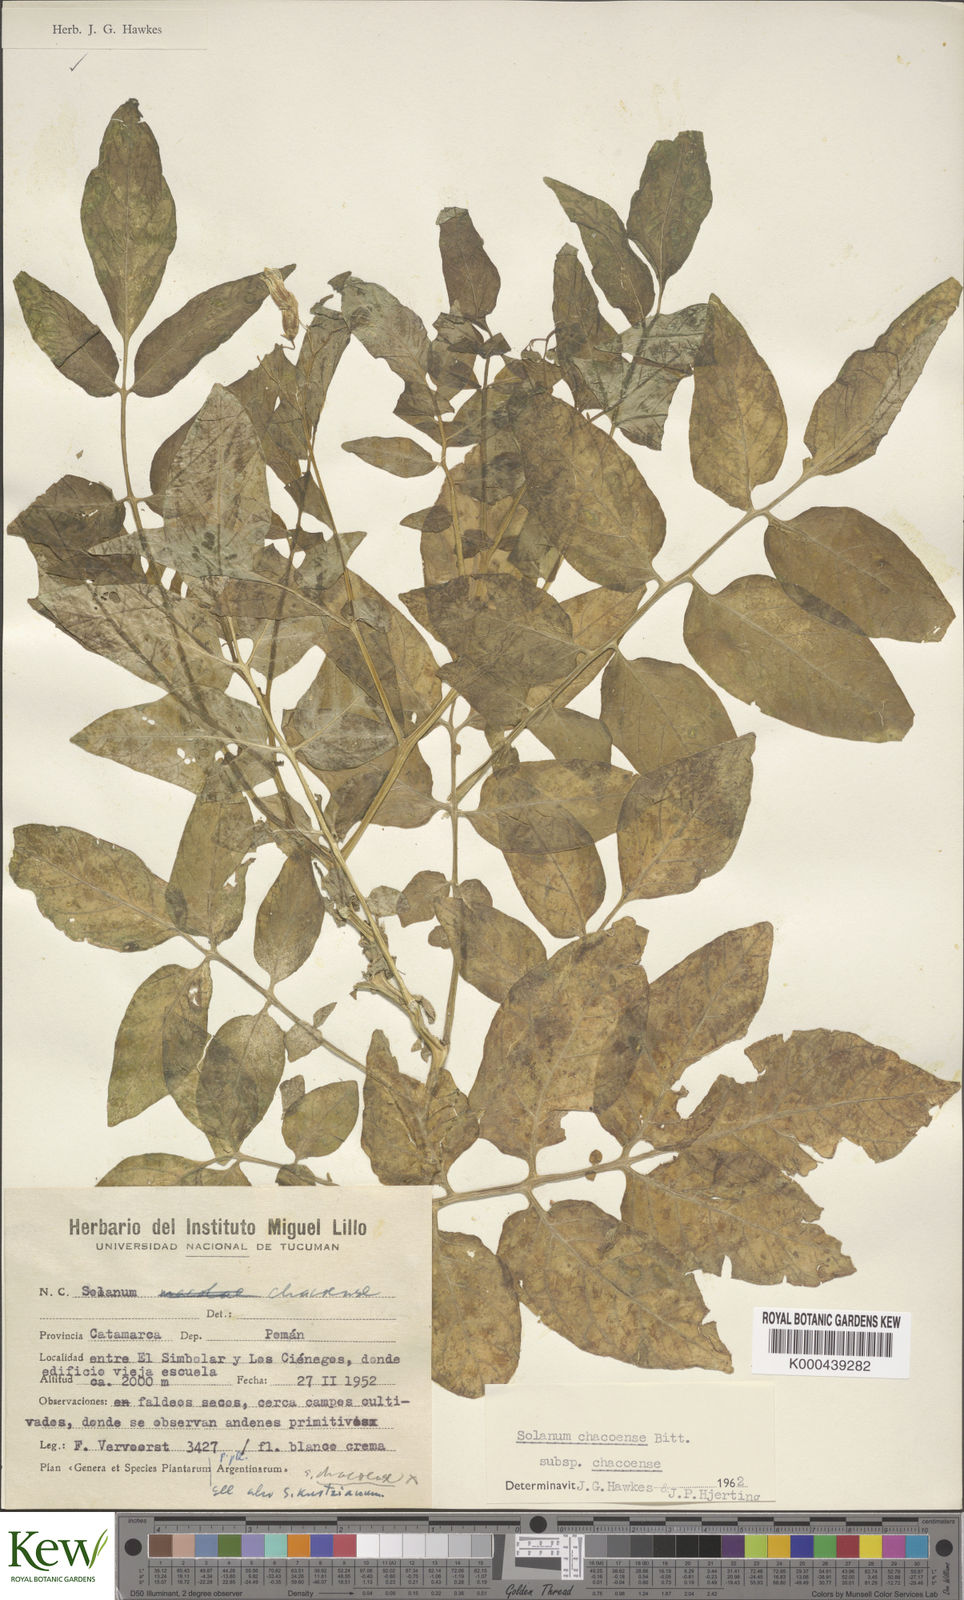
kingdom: Plantae
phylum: Tracheophyta
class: Magnoliopsida
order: Solanales
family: Solanaceae
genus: Solanum
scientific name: Solanum chacoense
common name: Chaco potato
